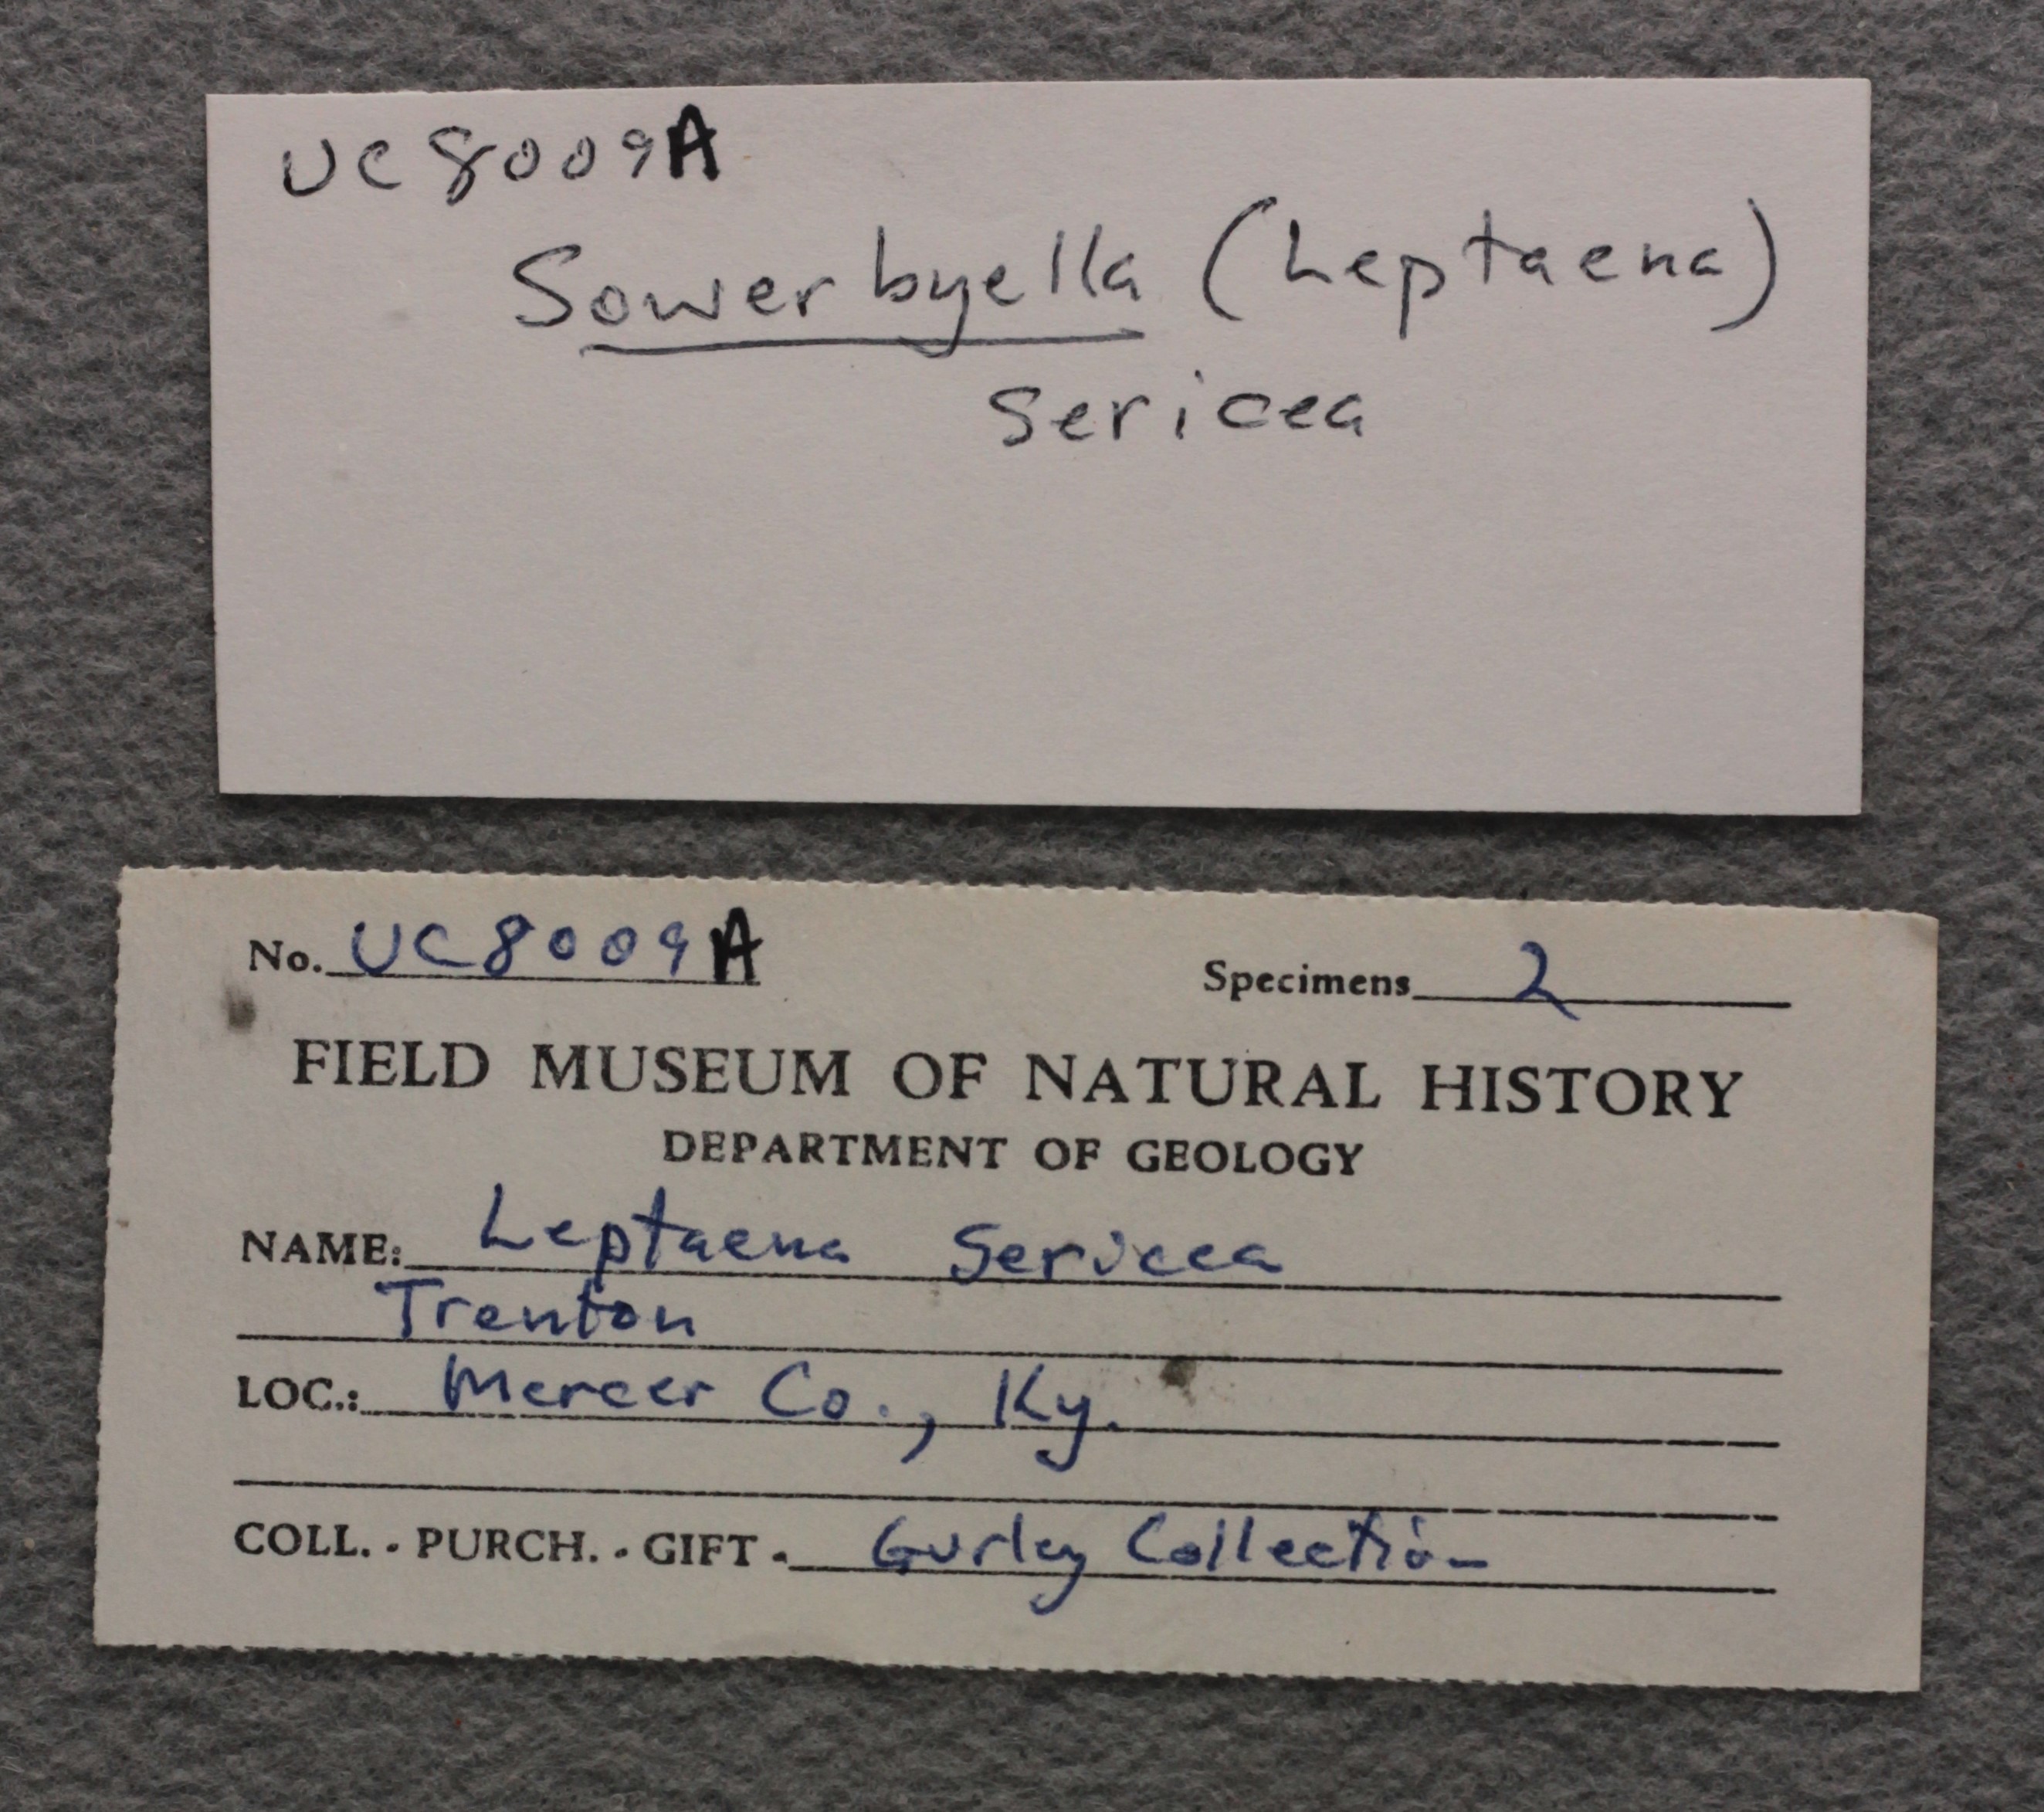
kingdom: Animalia
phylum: Brachiopoda
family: Sowerbyellidae
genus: Sowerbyella
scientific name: Sowerbyella Leptaena sericea
